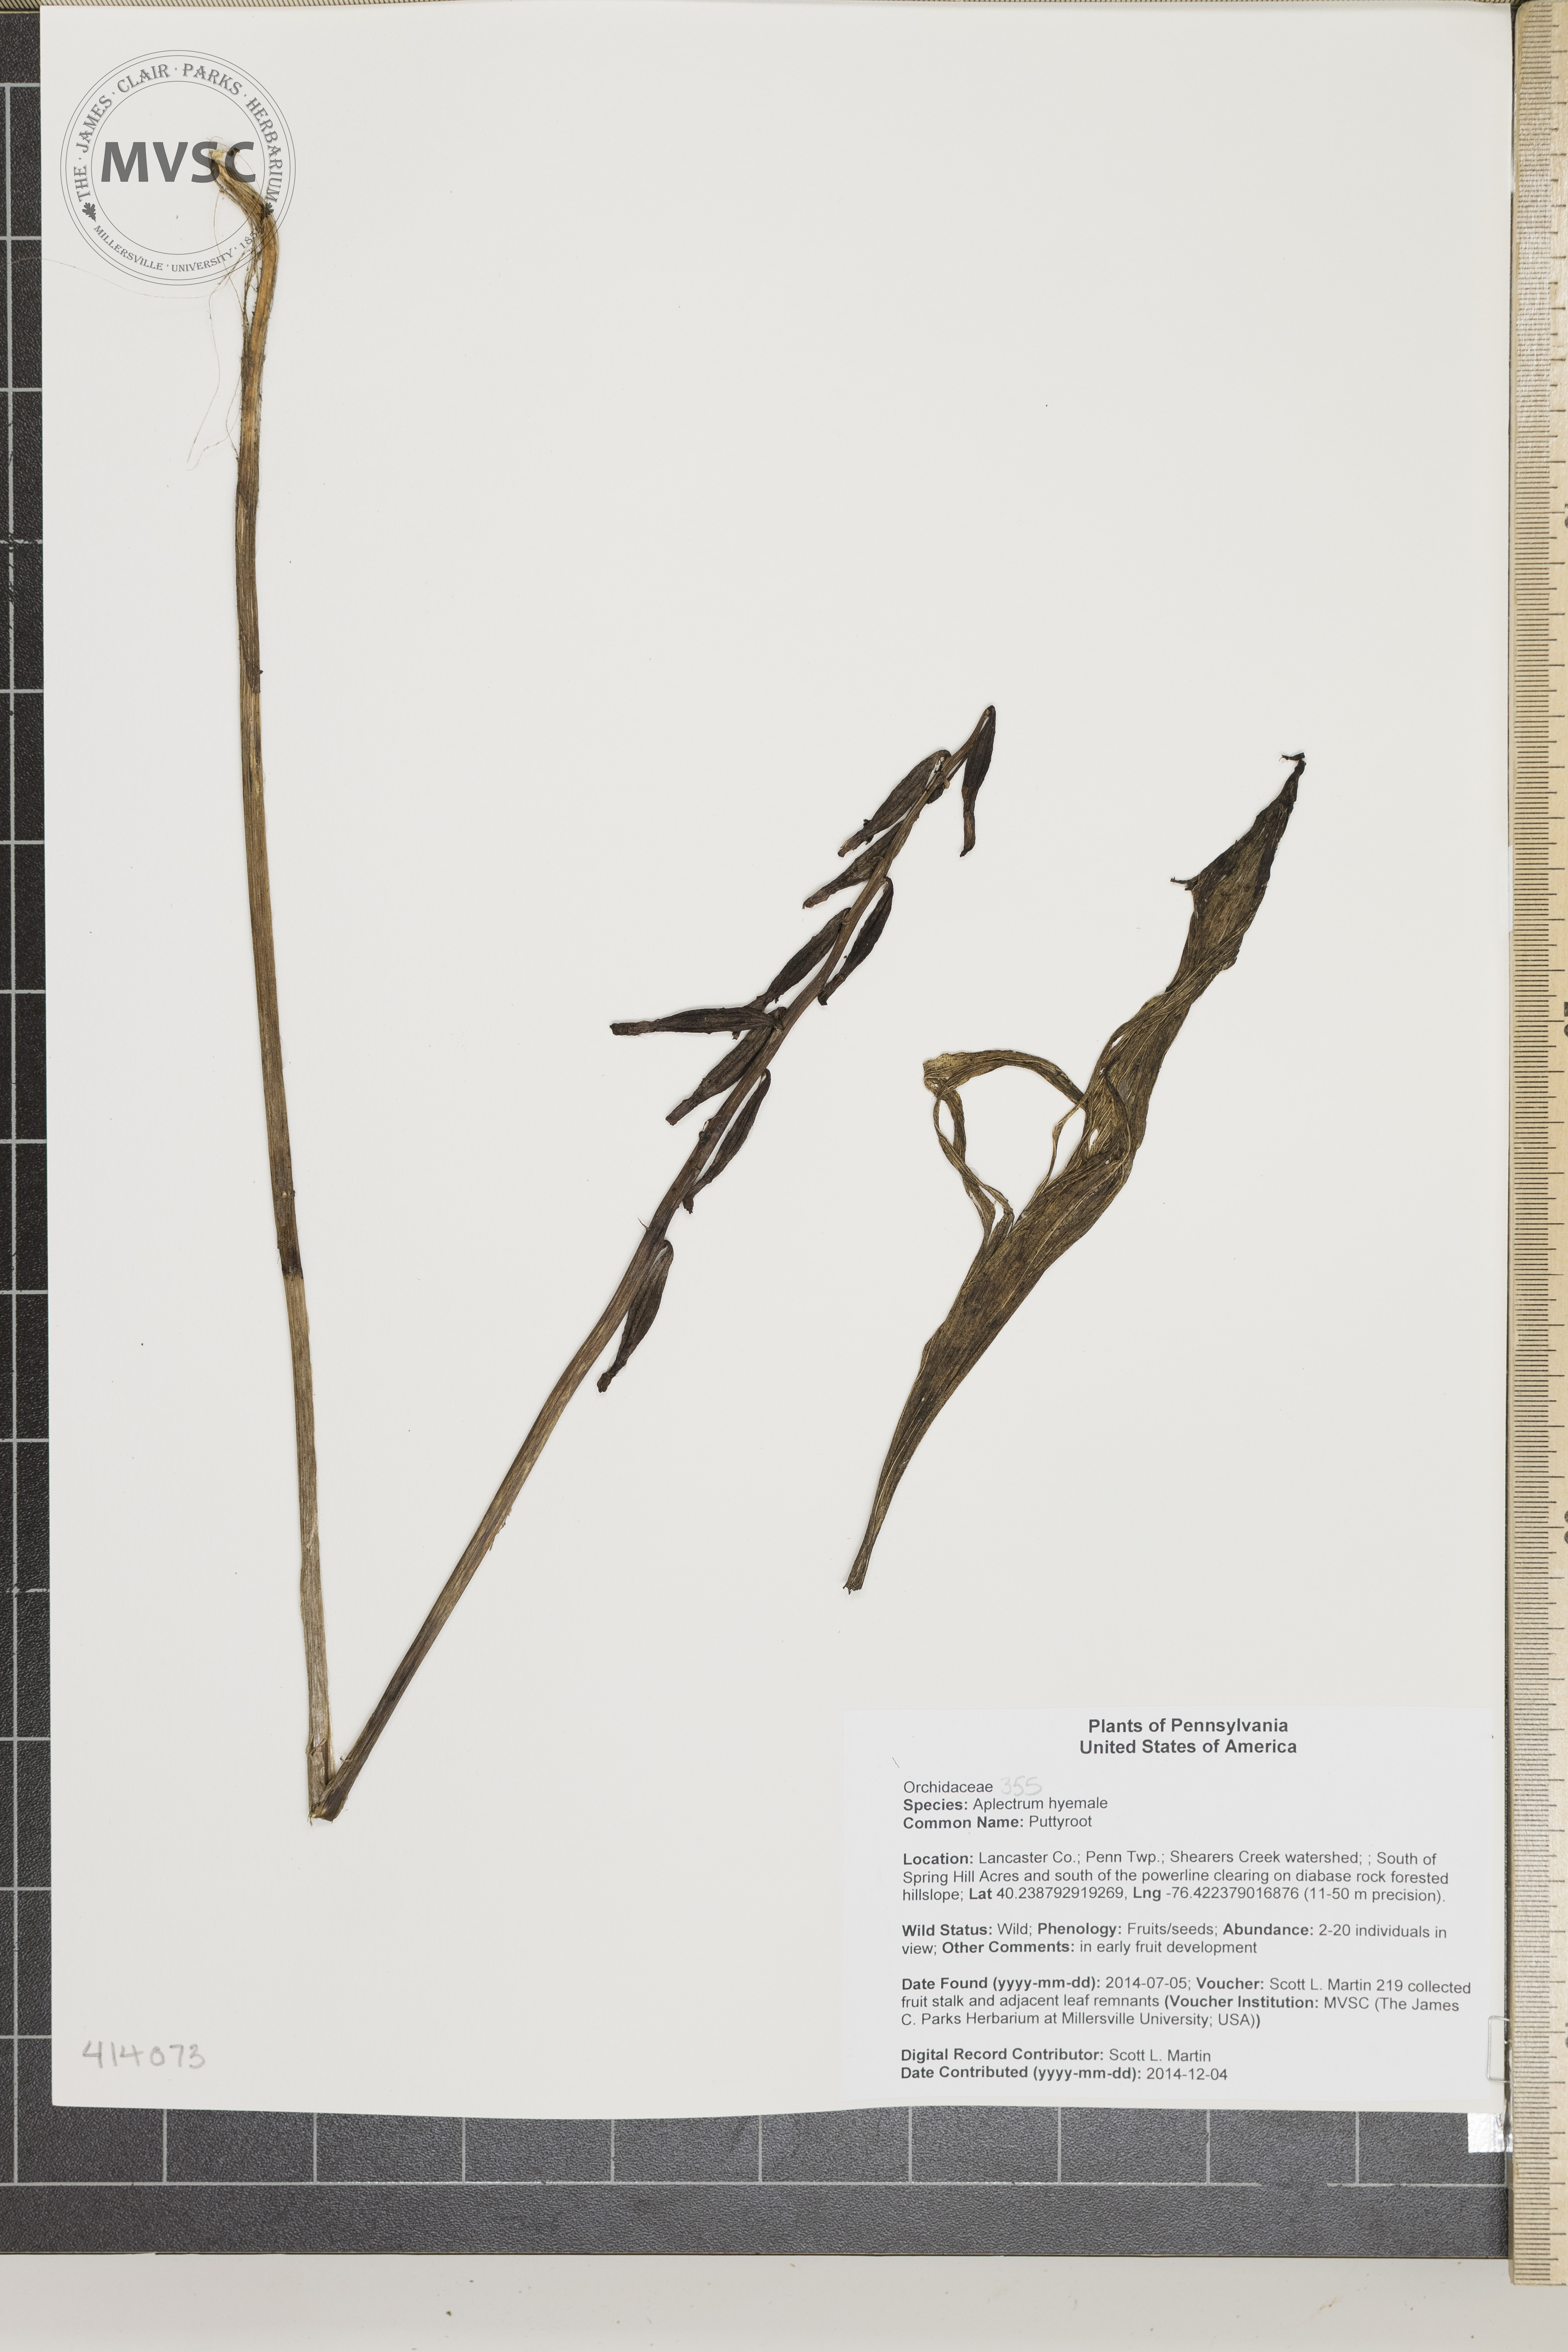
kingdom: Plantae
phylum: Tracheophyta
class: Liliopsida
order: Asparagales
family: Orchidaceae
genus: Aplectrum
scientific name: Aplectrum hyemale
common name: Puttyroot
